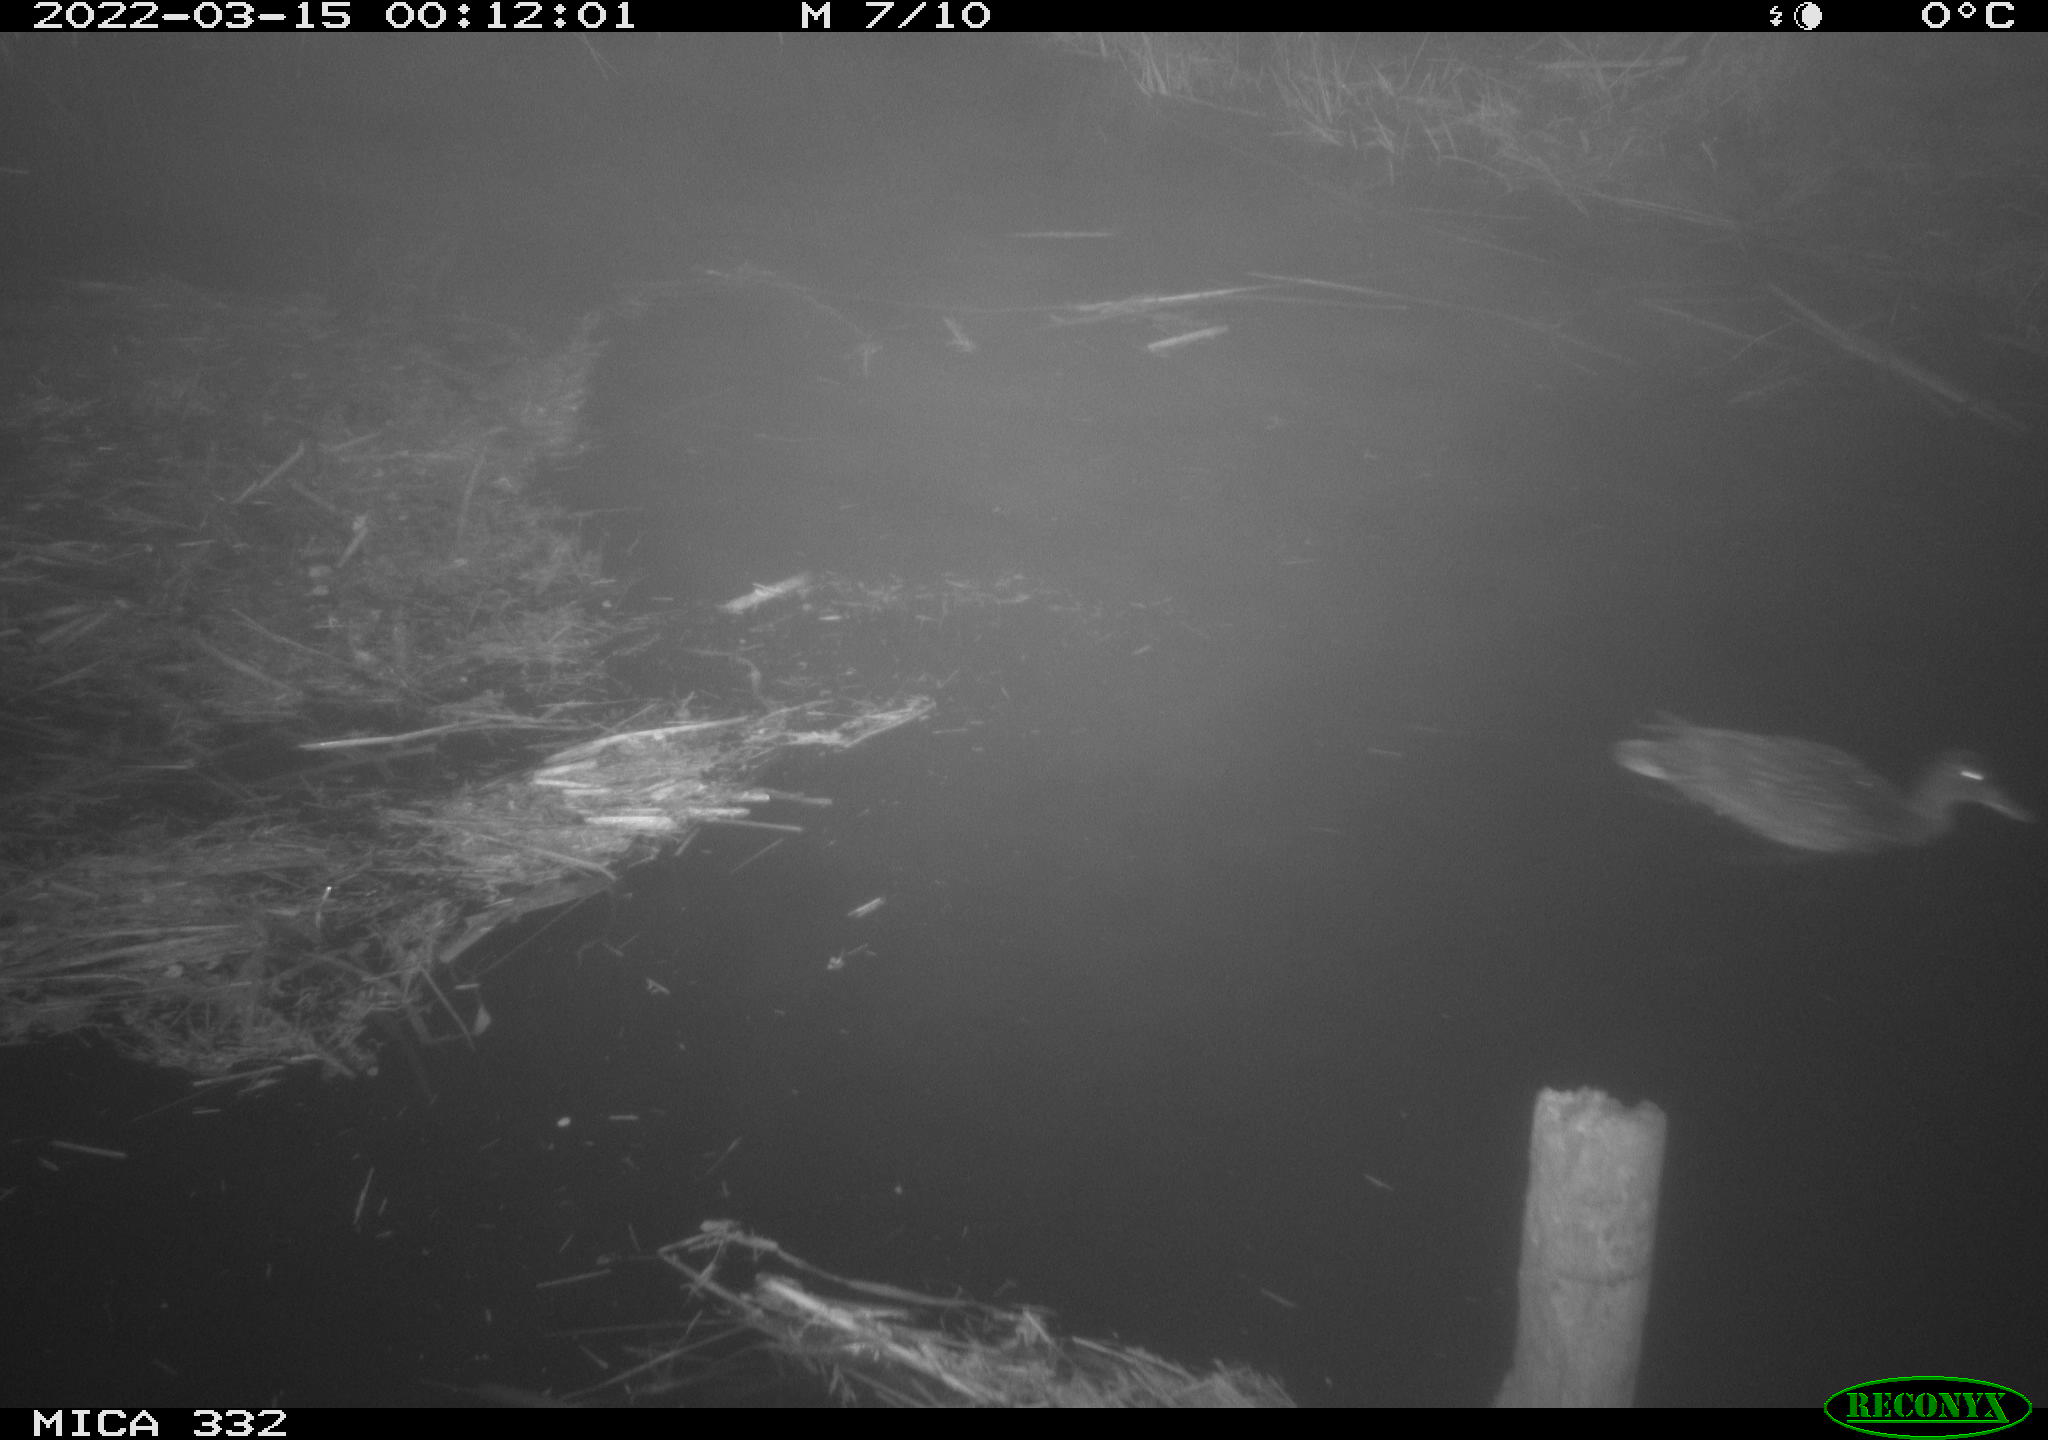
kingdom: Animalia
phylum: Chordata
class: Aves
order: Anseriformes
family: Anatidae
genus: Anas
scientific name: Anas platyrhynchos
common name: Mallard
